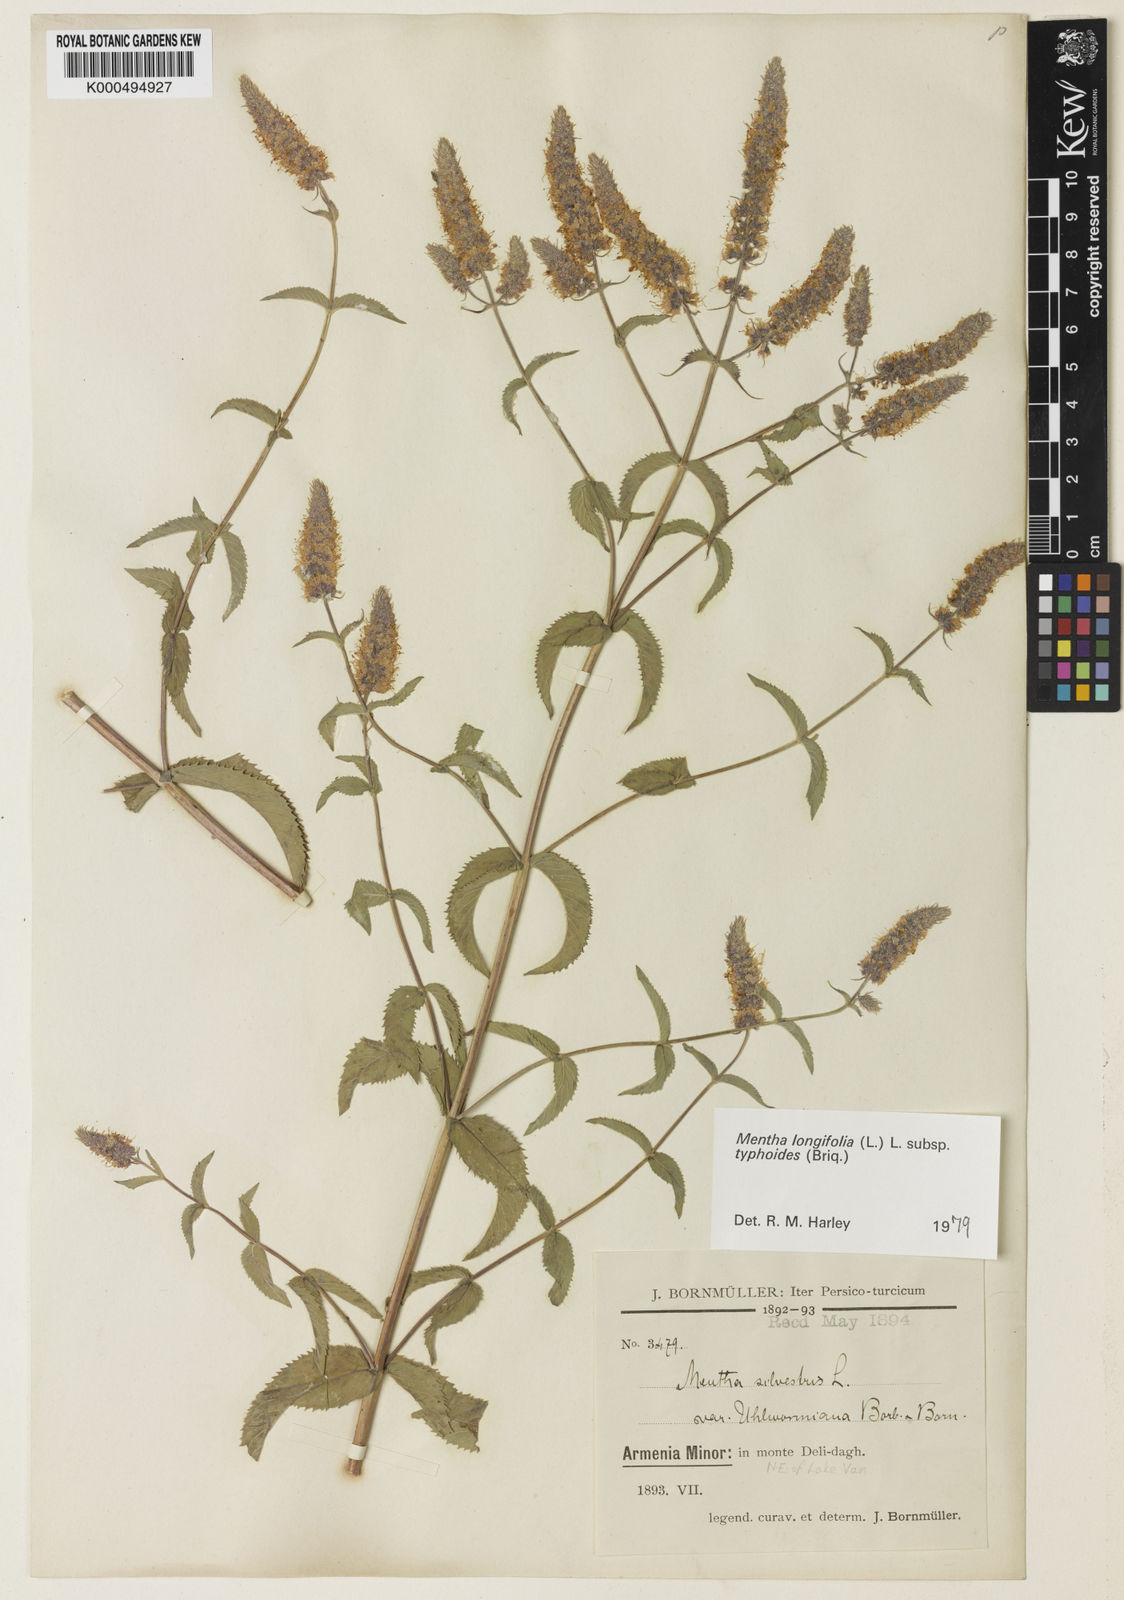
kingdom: Plantae
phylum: Tracheophyta
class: Magnoliopsida
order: Lamiales
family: Lamiaceae
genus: Mentha
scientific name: Mentha longifolia
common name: Horse mint
